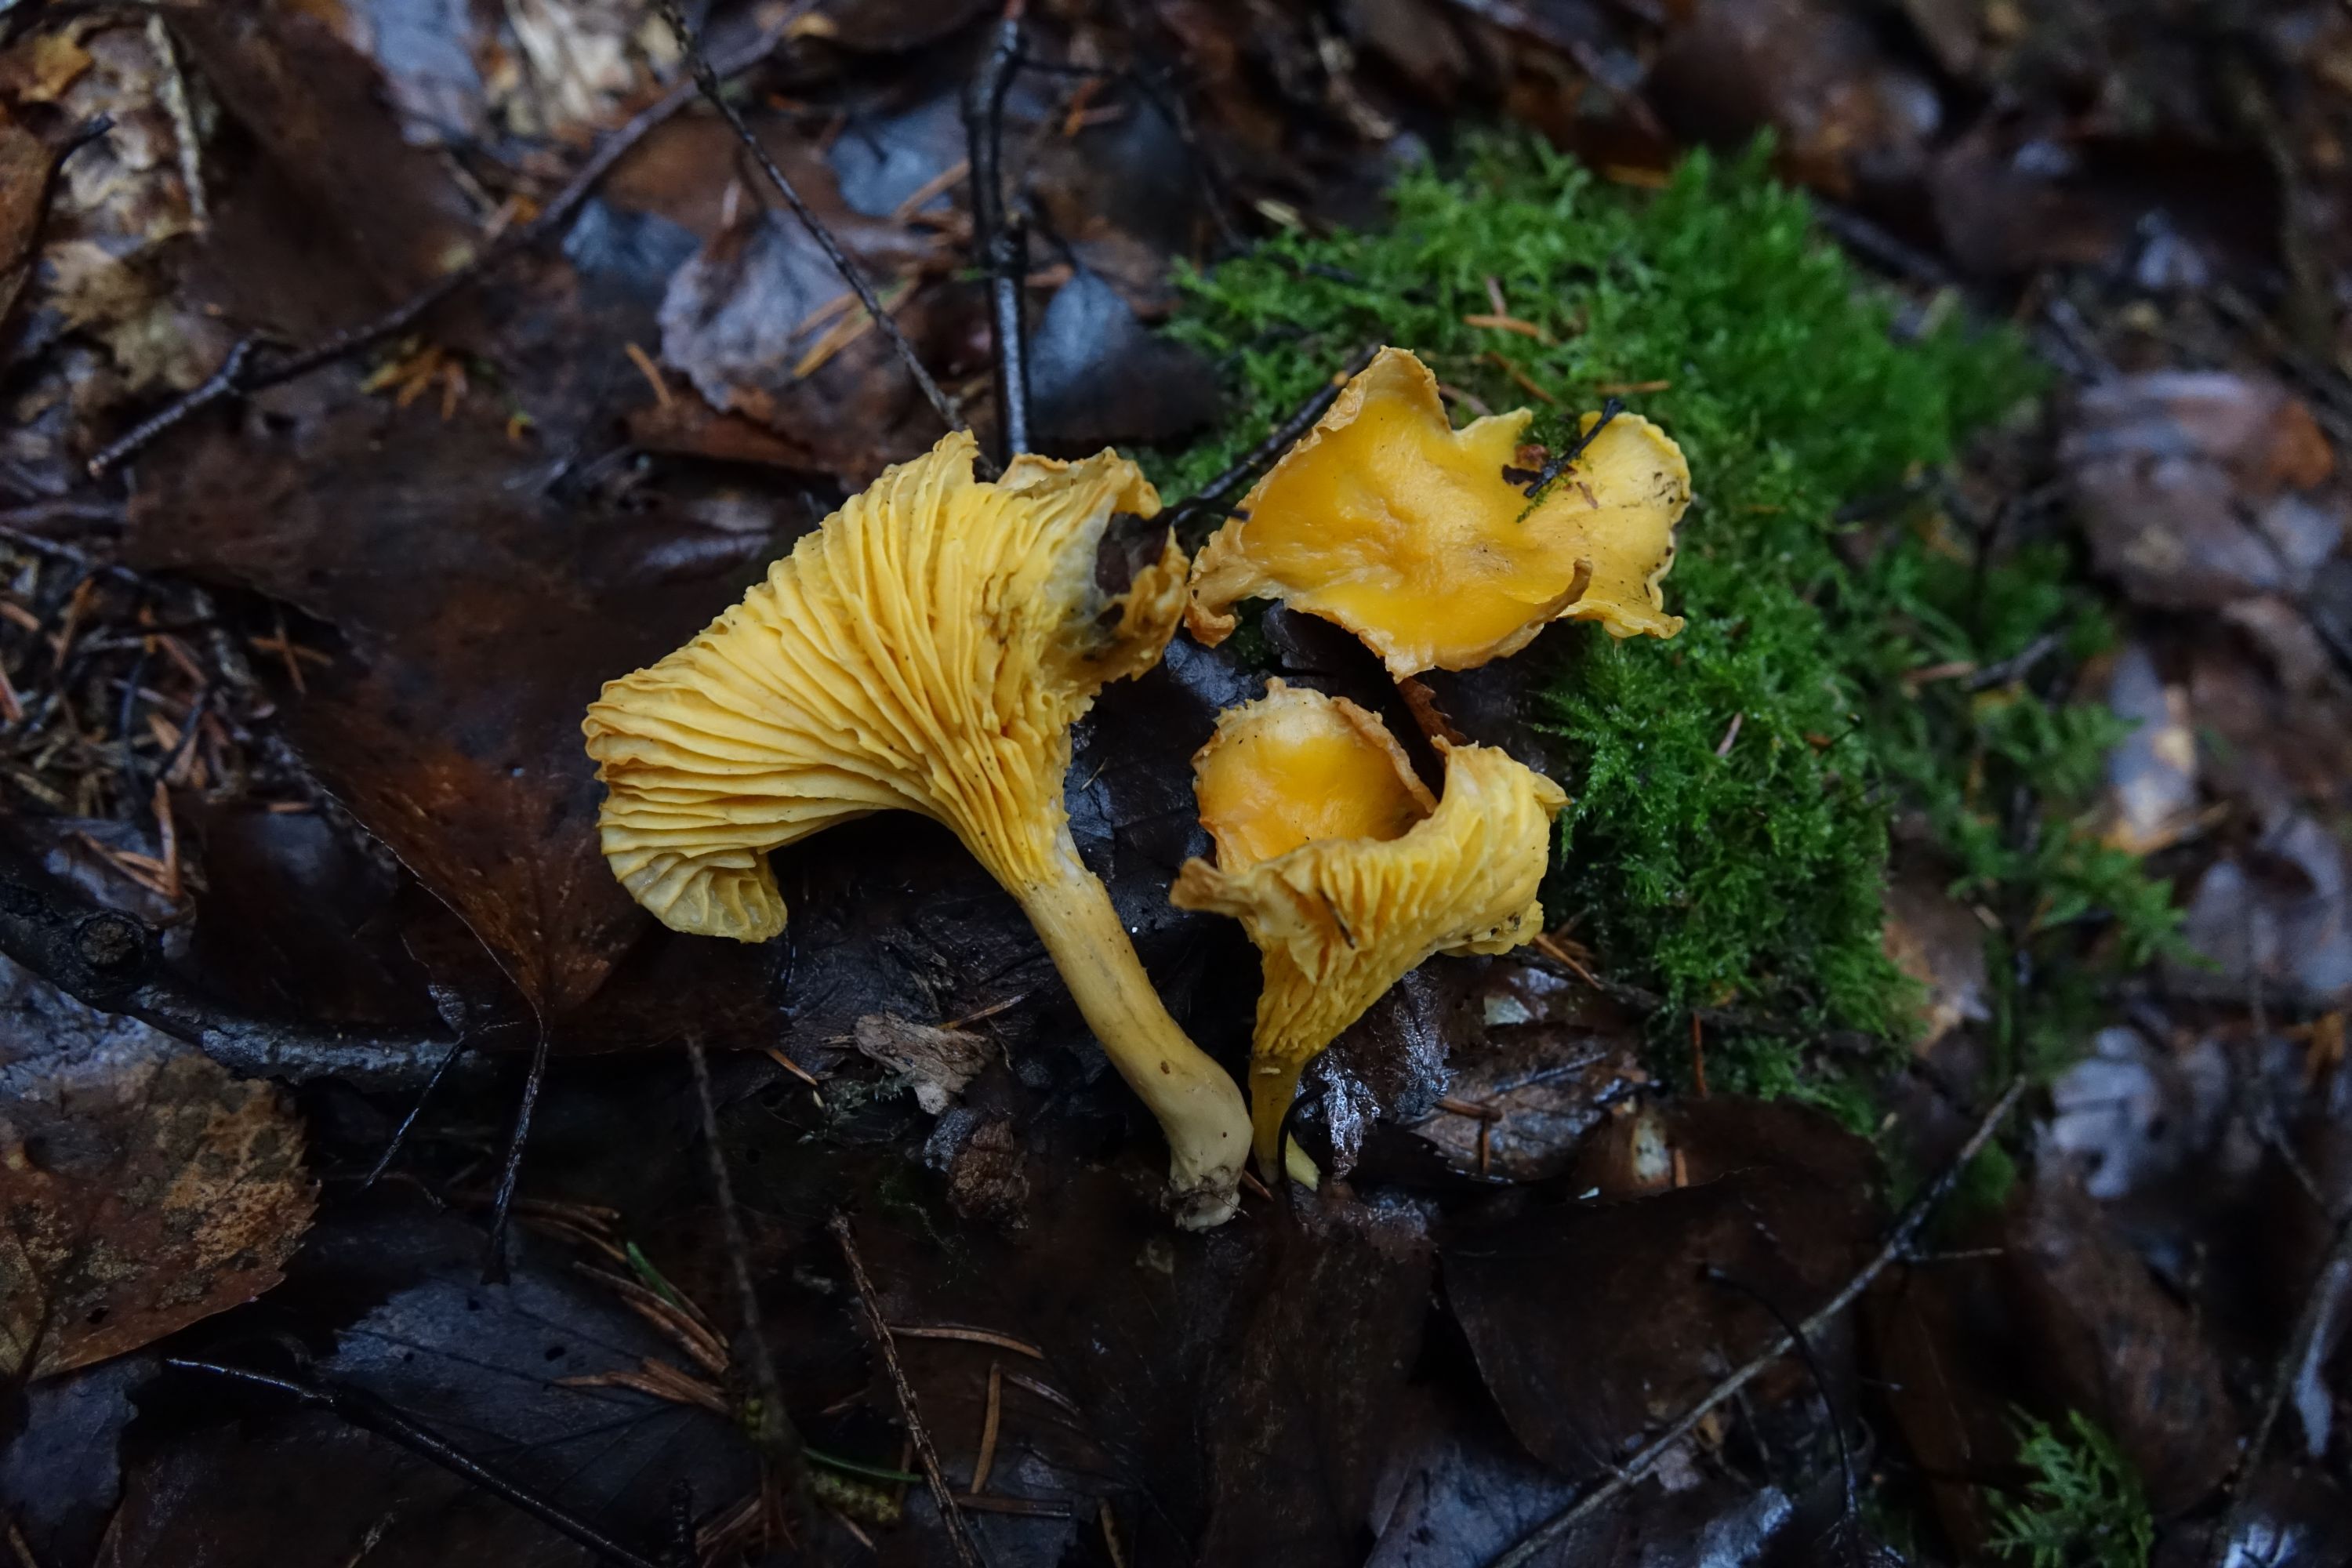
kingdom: Fungi
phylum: Basidiomycota
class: Agaricomycetes
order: Cantharellales
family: Hydnaceae
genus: Cantharellus
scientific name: Cantharellus cibarius
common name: Chanterelle
